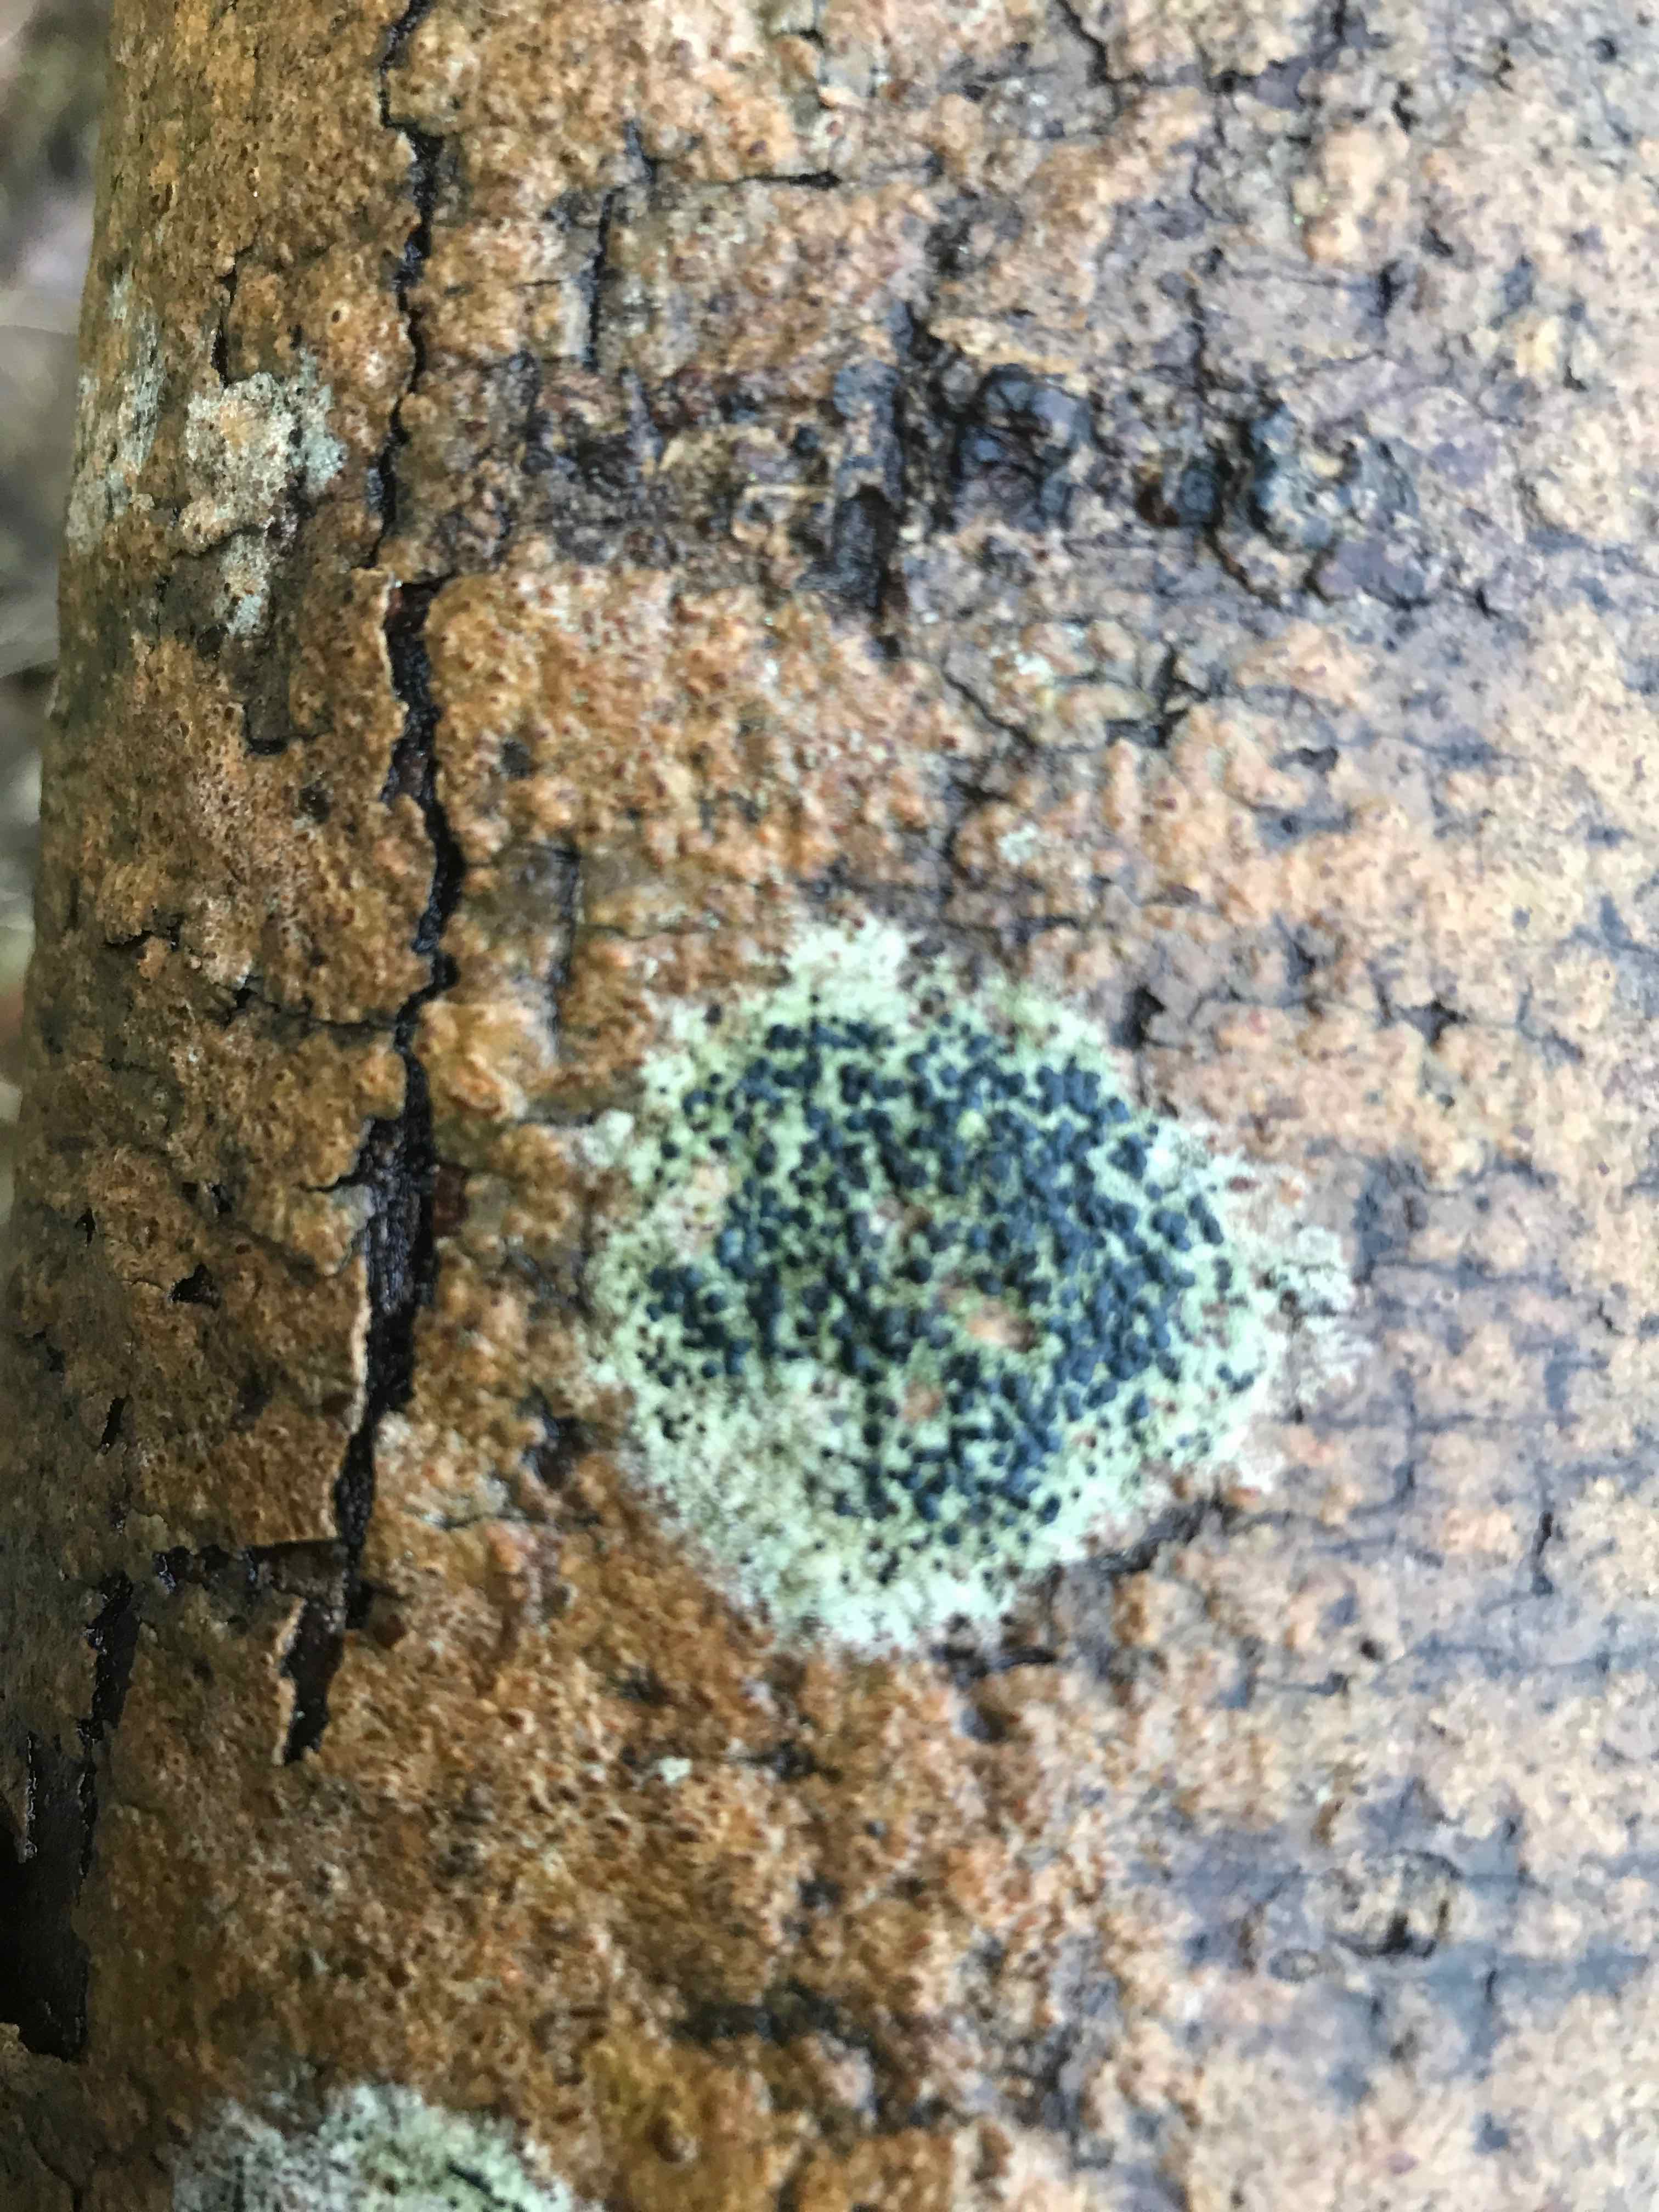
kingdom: Fungi
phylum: Ascomycota
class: Lecanoromycetes
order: Lecanorales
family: Lecanoraceae
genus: Lecidella
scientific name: Lecidella elaeochroma
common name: grågrøn skivelav
